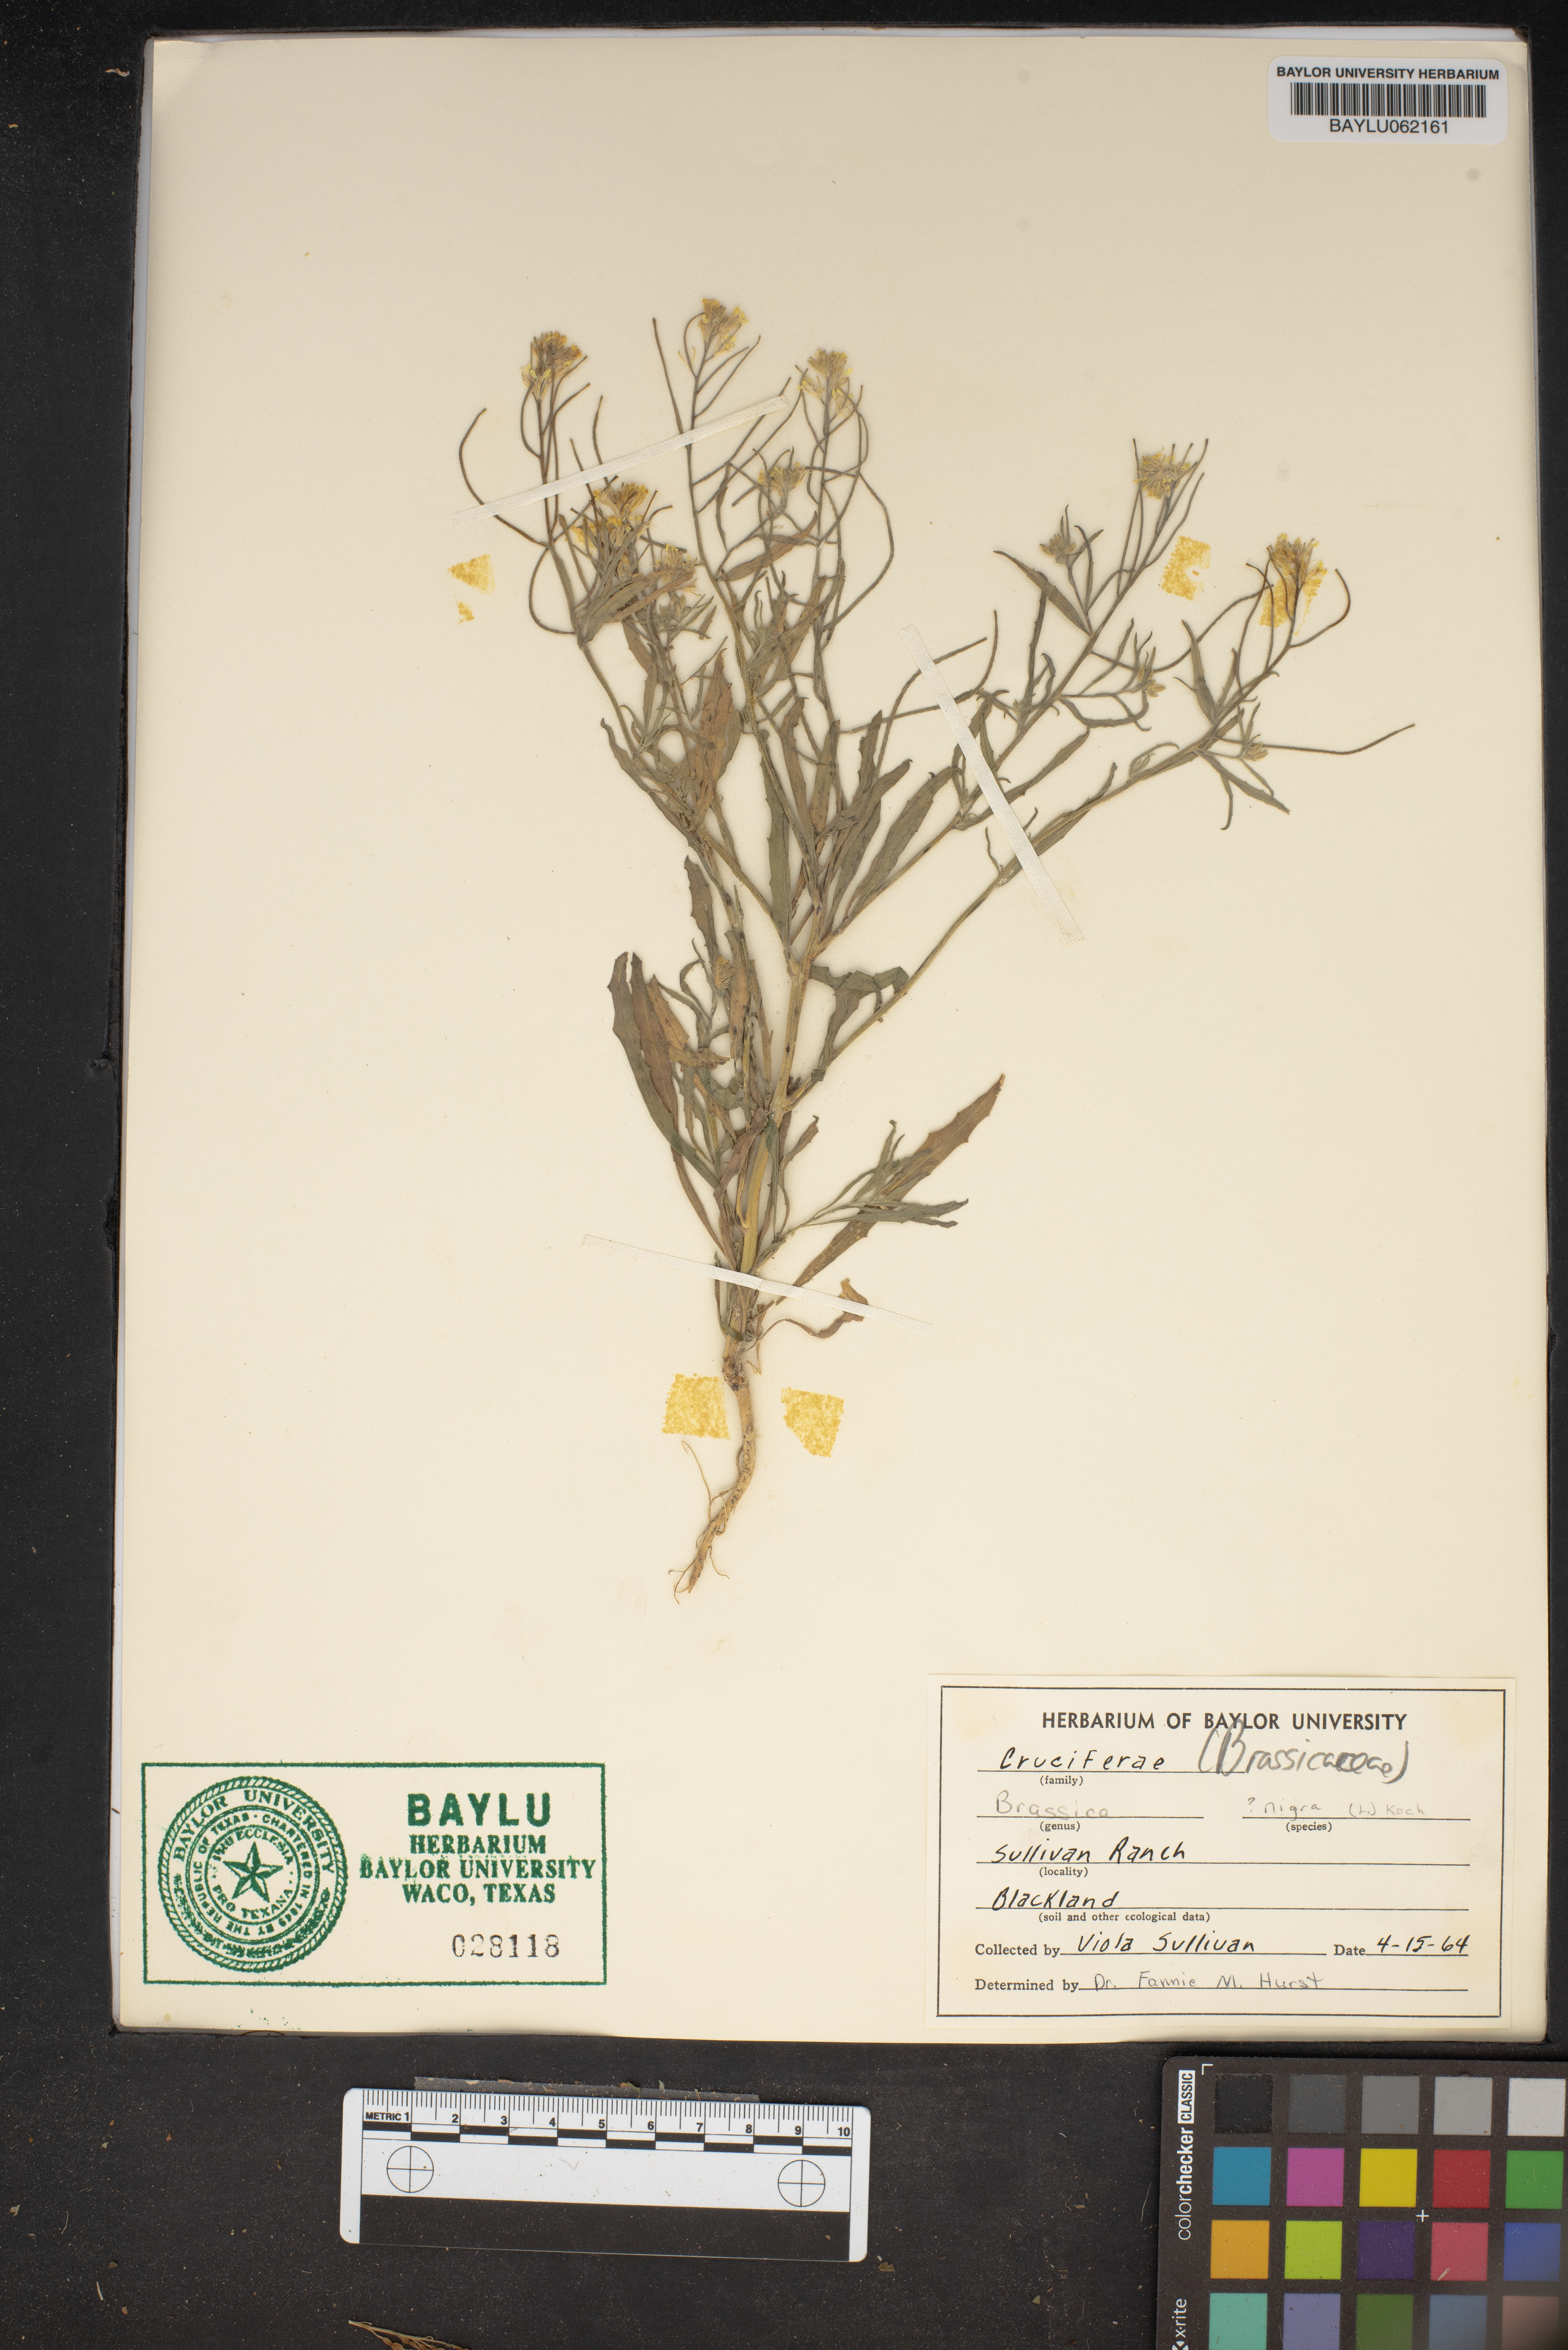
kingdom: Plantae
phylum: Tracheophyta
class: Magnoliopsida
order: Brassicales
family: Brassicaceae
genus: Brassica
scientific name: Brassica nigra
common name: Black mustard
